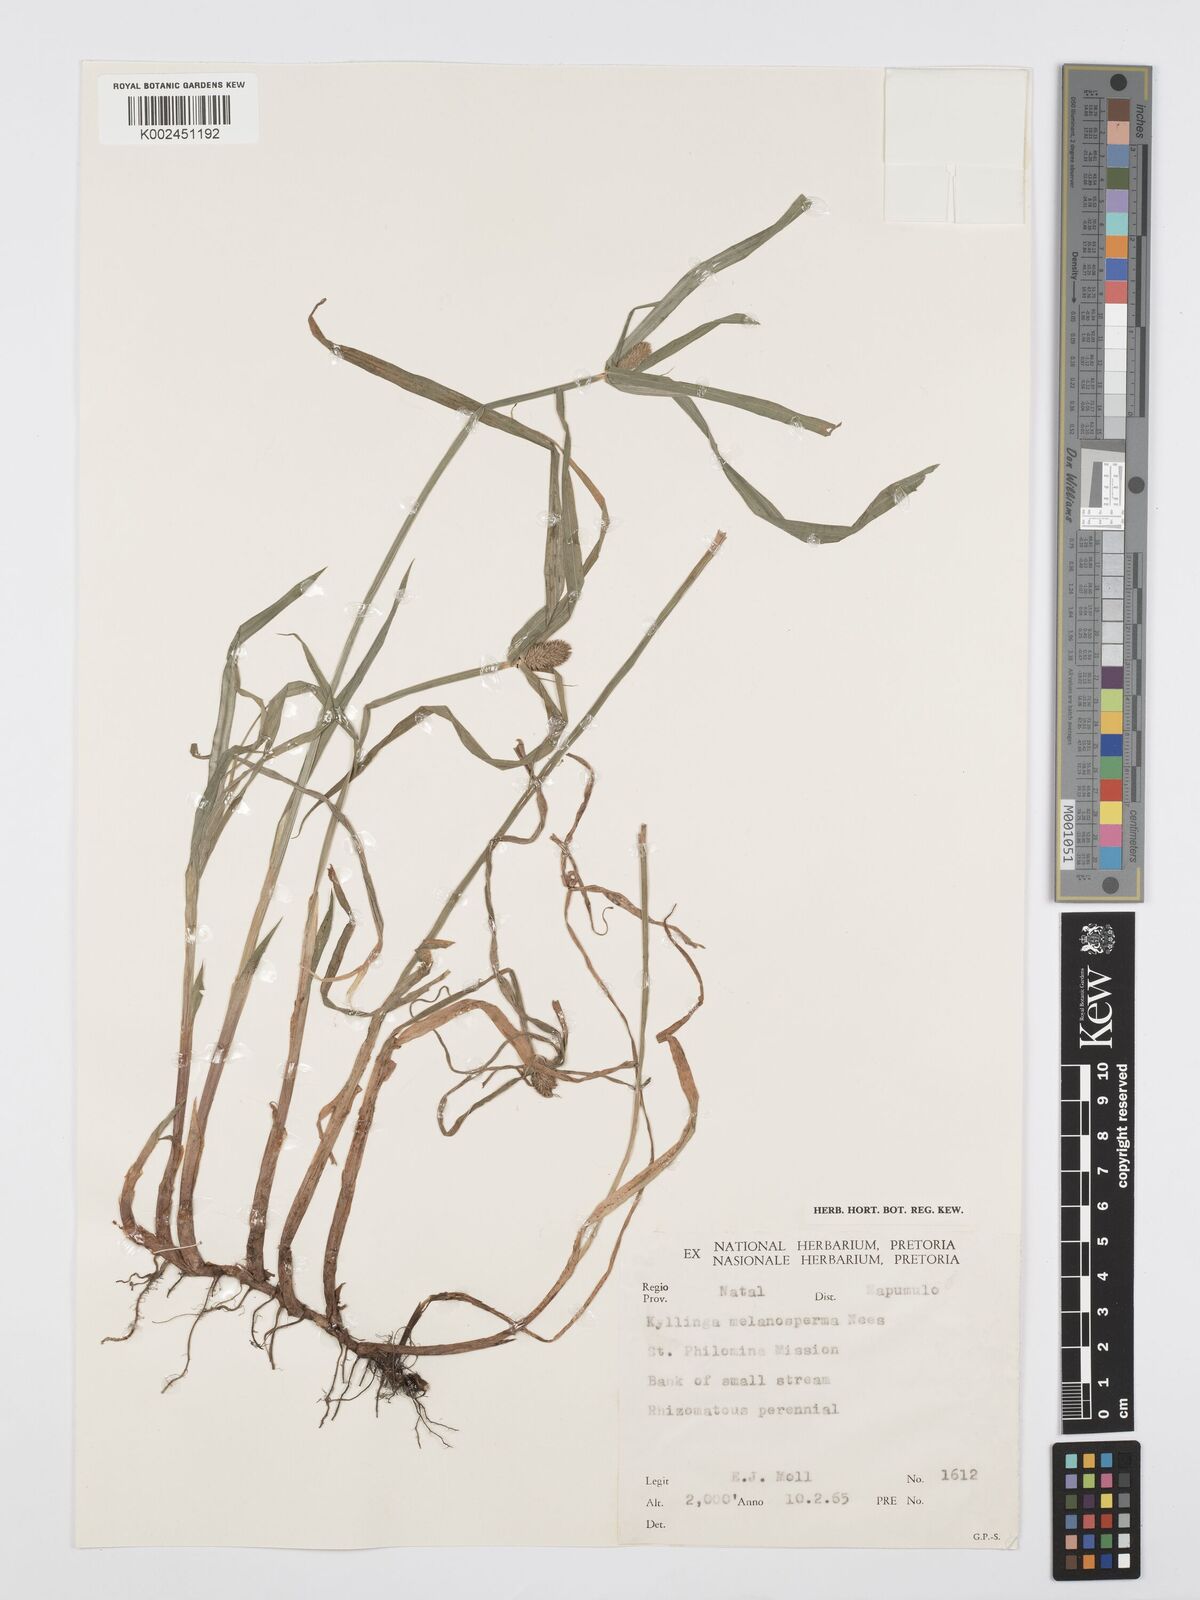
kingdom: Plantae
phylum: Tracheophyta
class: Liliopsida
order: Poales
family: Cyperaceae
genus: Cyperus
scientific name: Cyperus ruwenzoriensis
